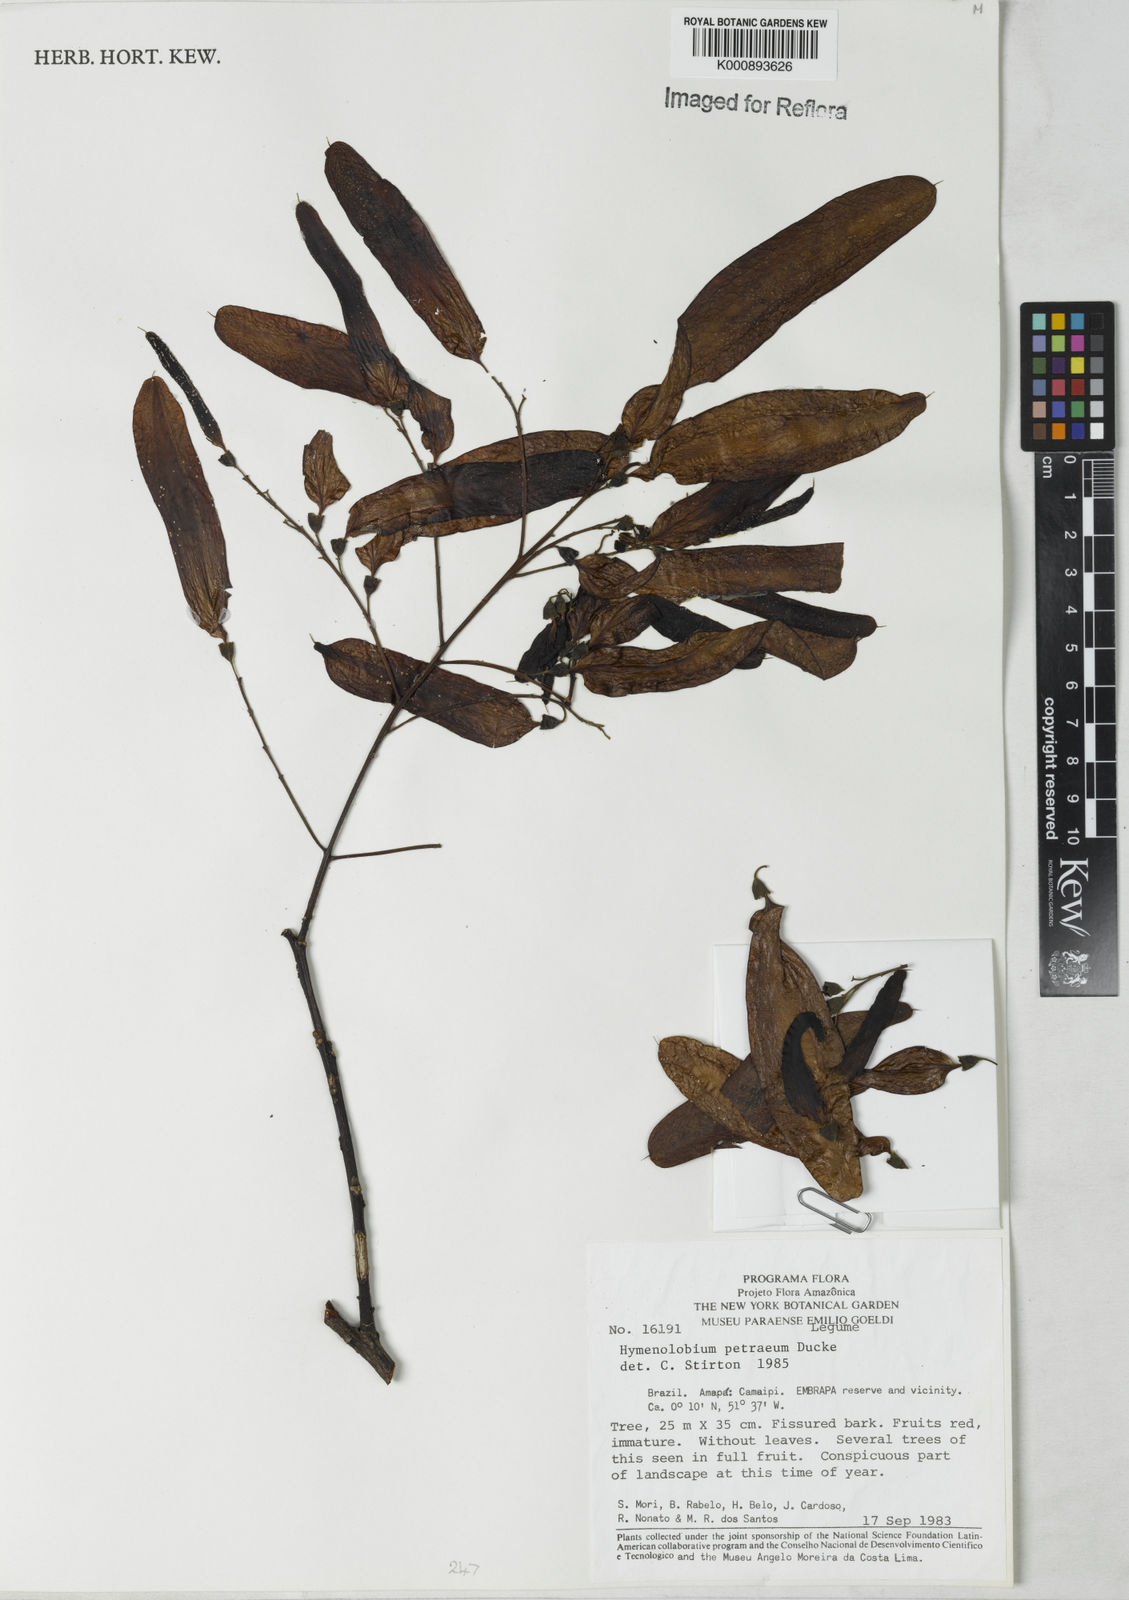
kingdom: Plantae
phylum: Tracheophyta
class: Magnoliopsida
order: Fabales
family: Fabaceae
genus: Hymenolobium
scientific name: Hymenolobium petraeum
